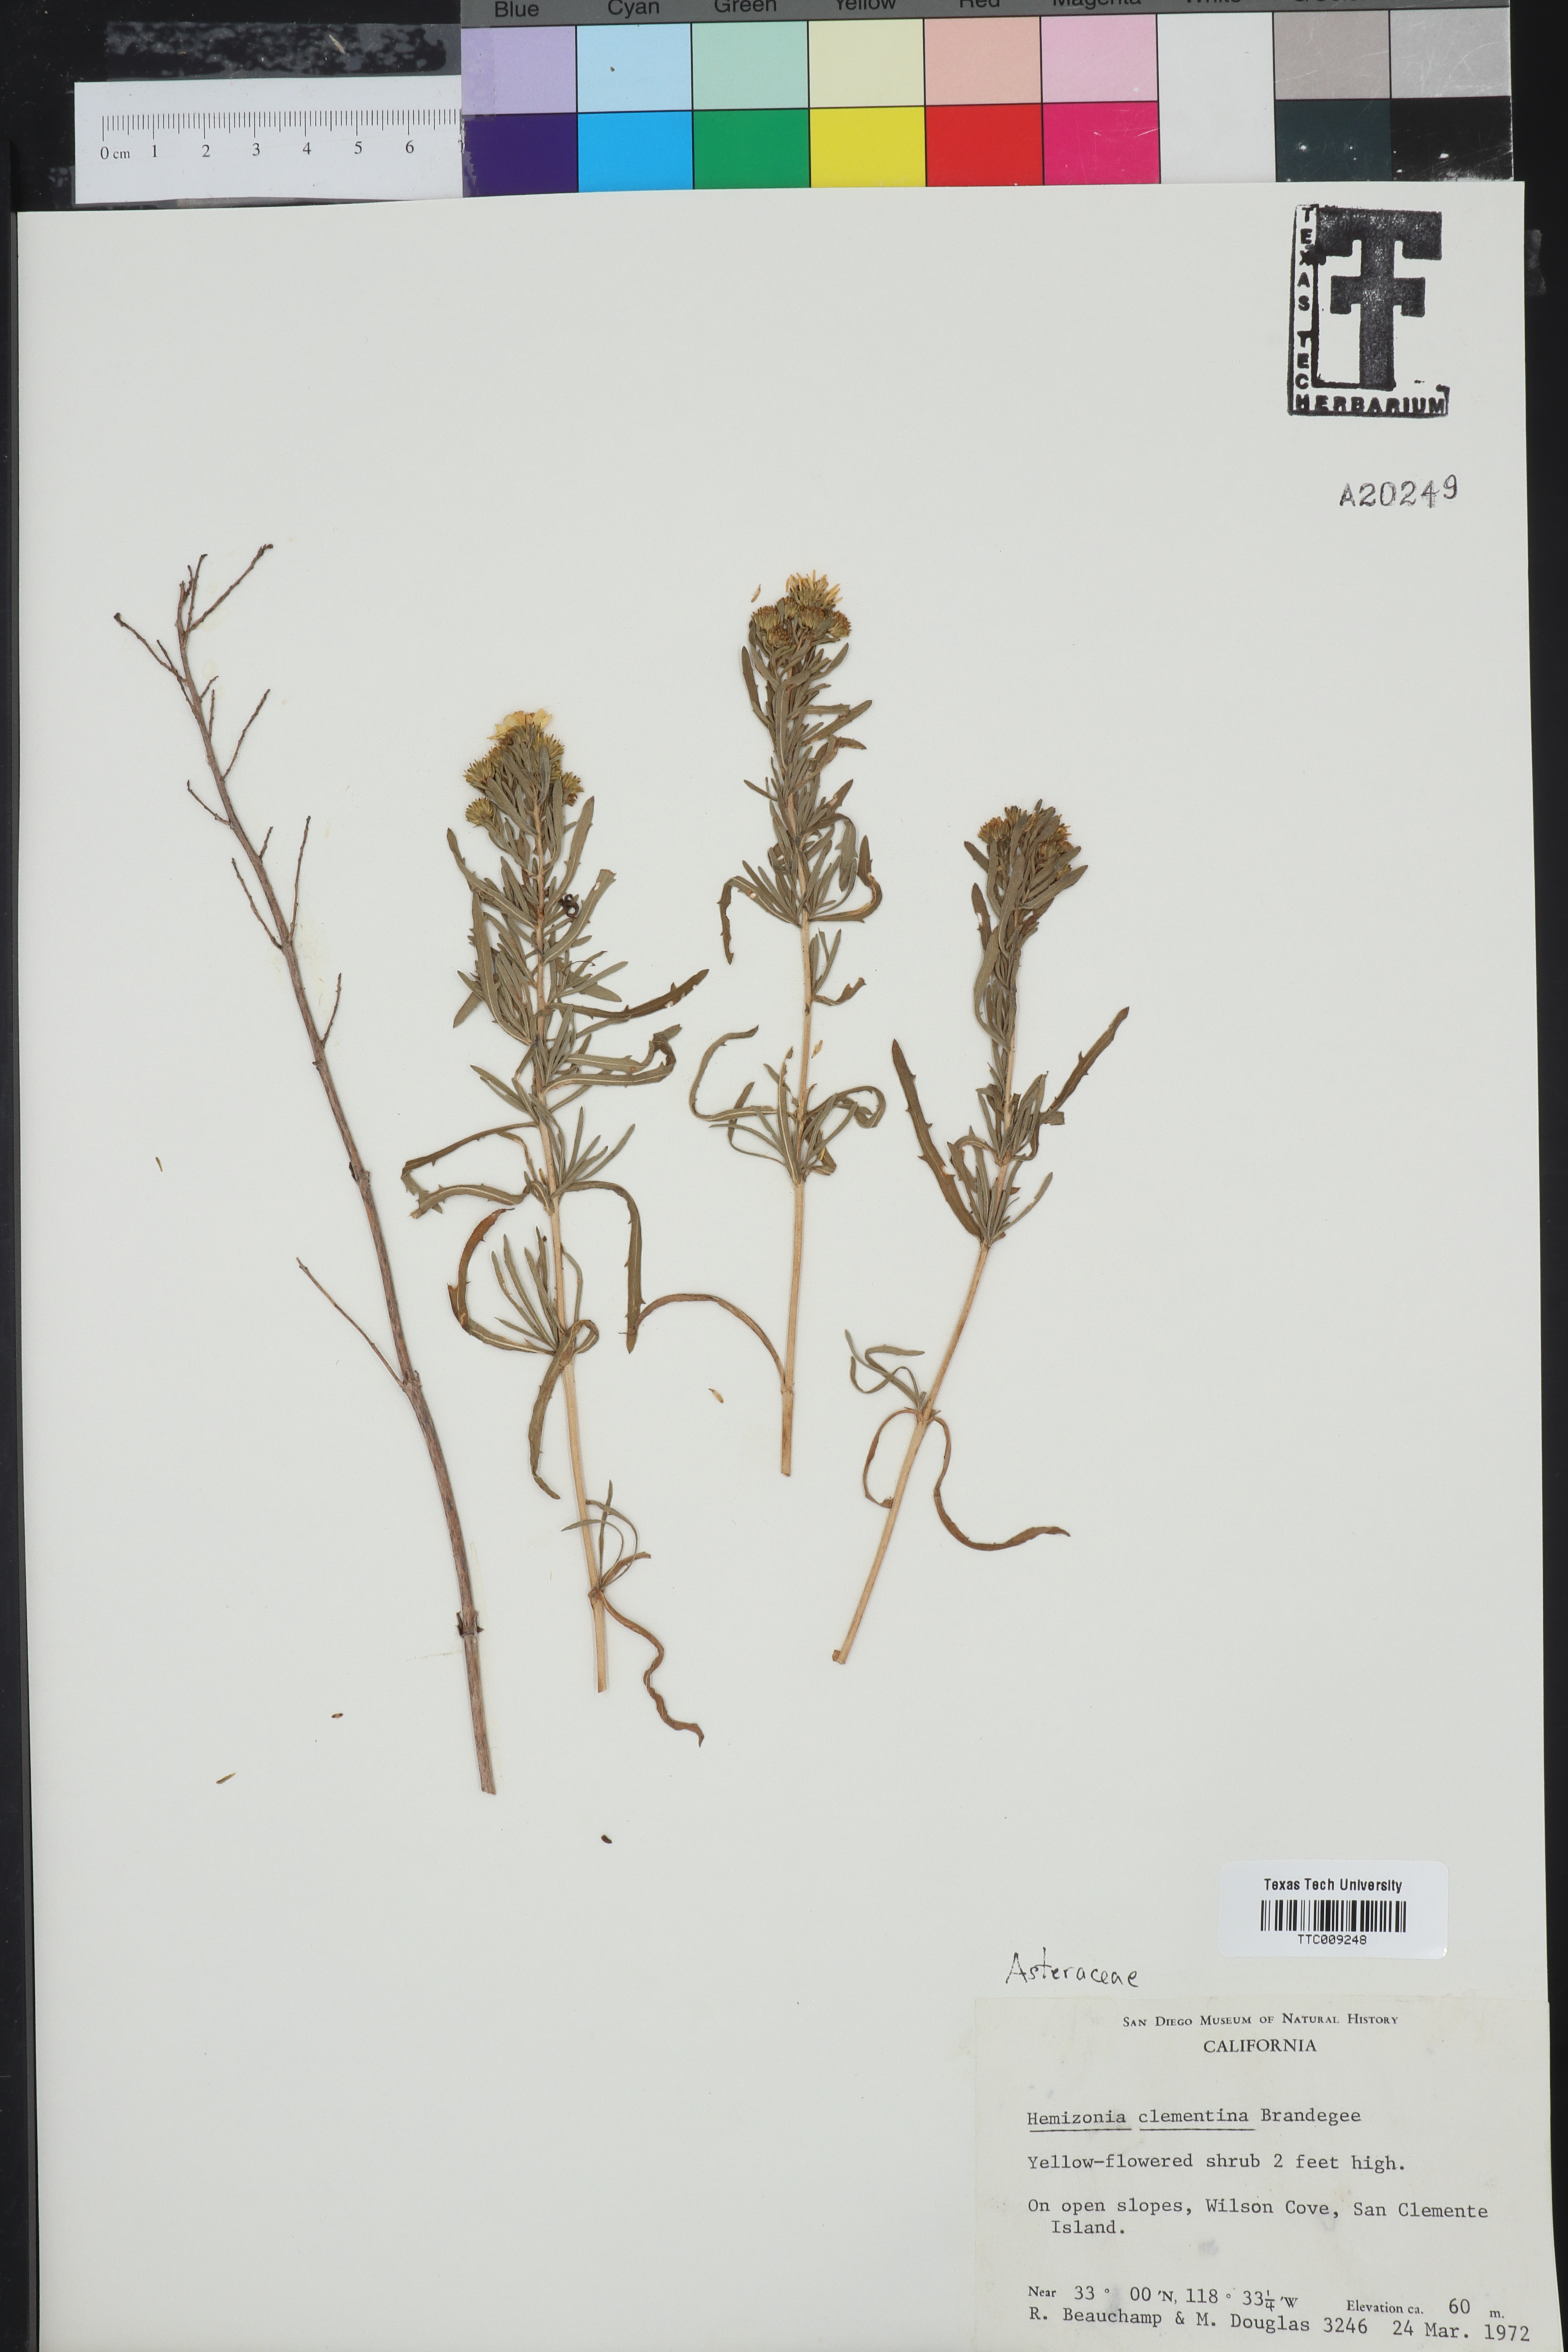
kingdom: Plantae
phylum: Tracheophyta
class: Magnoliopsida
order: Asterales
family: Asteraceae
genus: Deinandra
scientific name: Deinandra clementina
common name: Island tarplant
